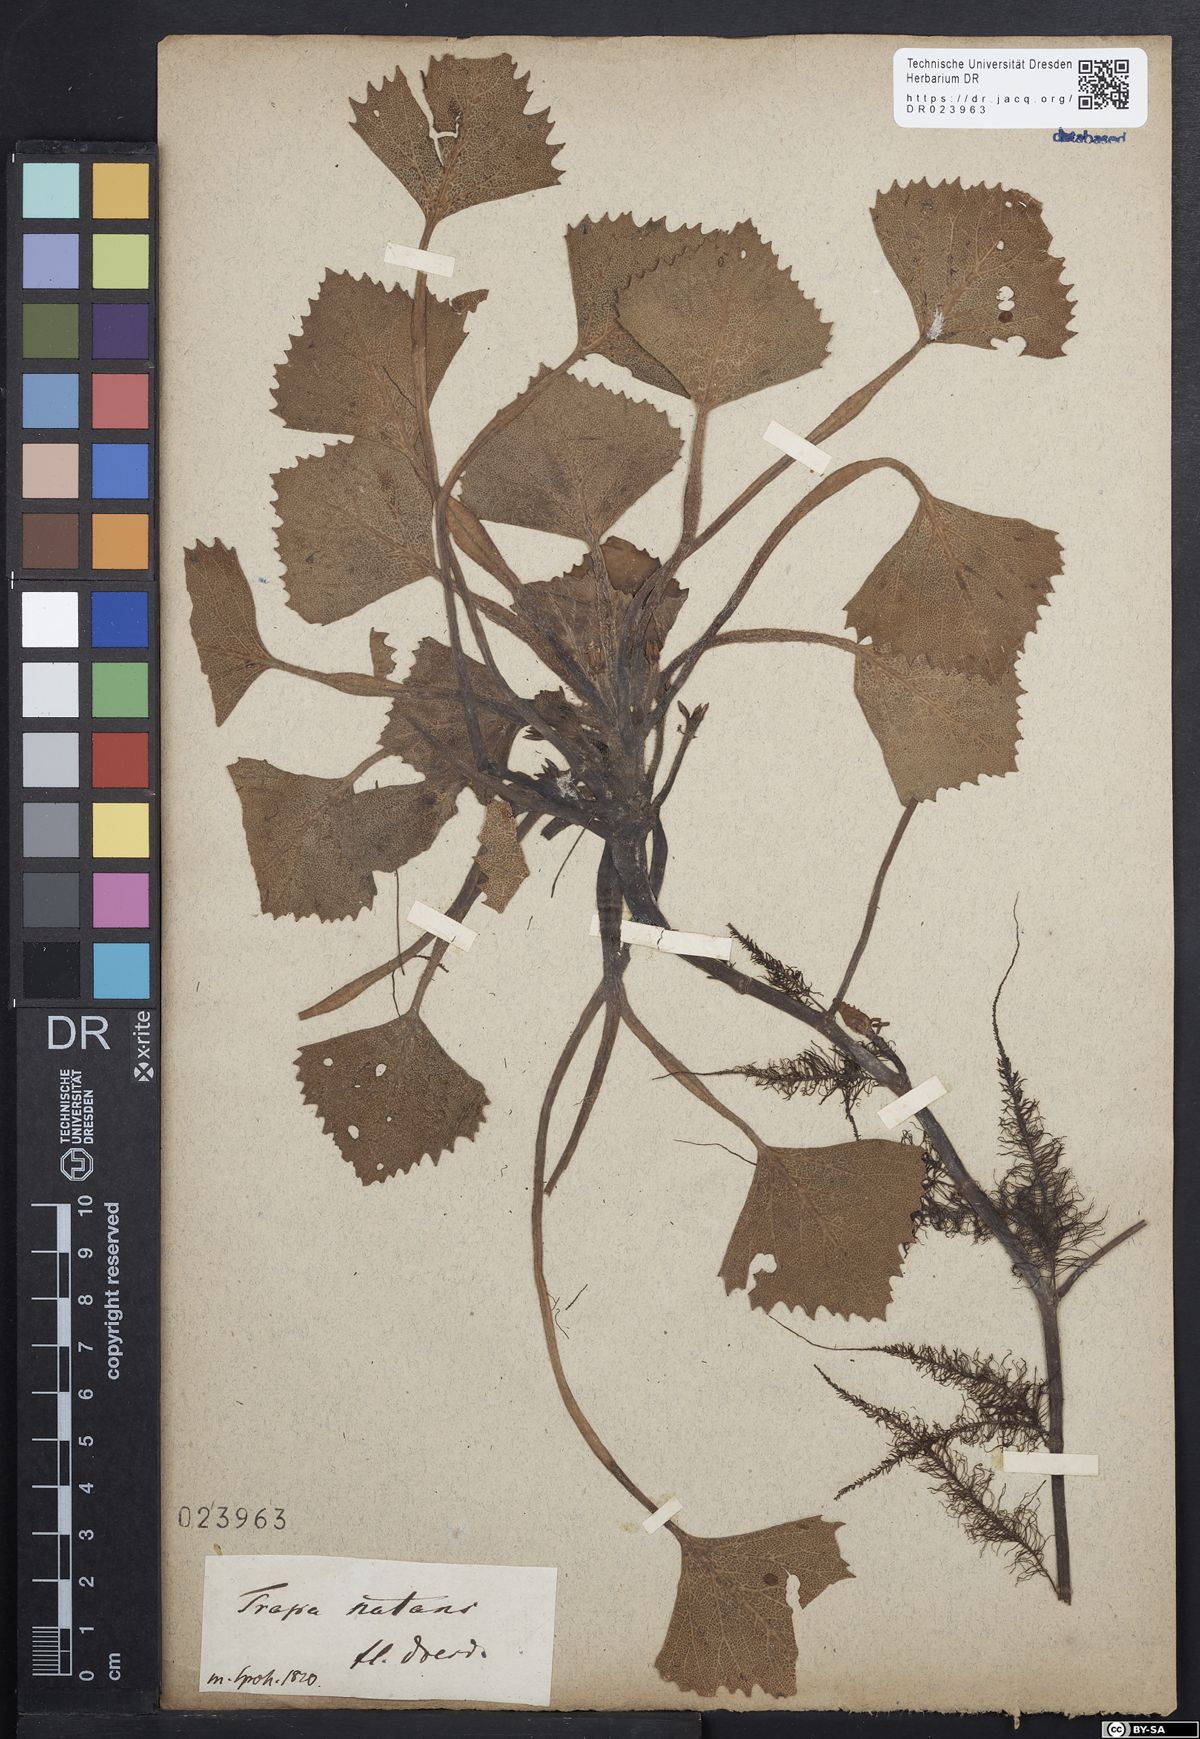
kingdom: Plantae
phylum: Tracheophyta
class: Magnoliopsida
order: Myrtales
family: Lythraceae
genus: Trapa
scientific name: Trapa natans
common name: Water chestnut
